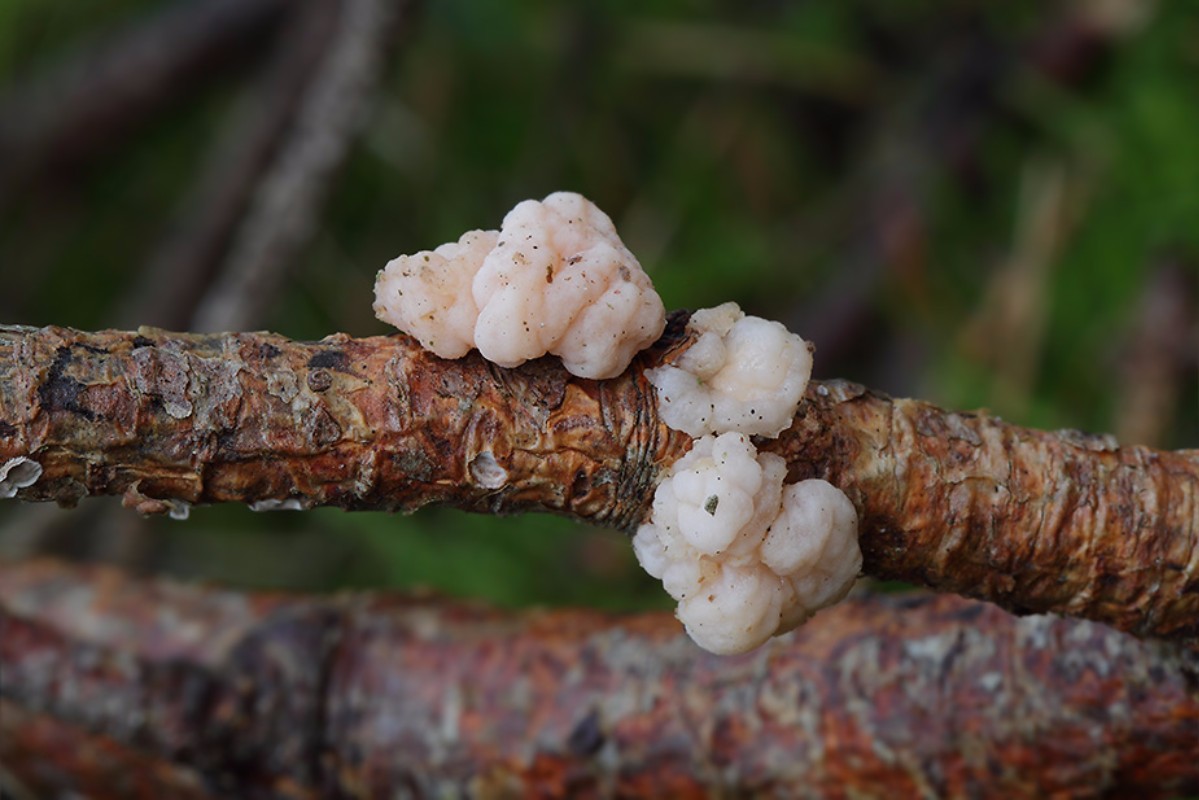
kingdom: Fungi
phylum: Basidiomycota
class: Tremellomycetes
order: Tremellales
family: Naemateliaceae
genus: Naematelia
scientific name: Naematelia encephala
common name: fyrre-bævresvamp
